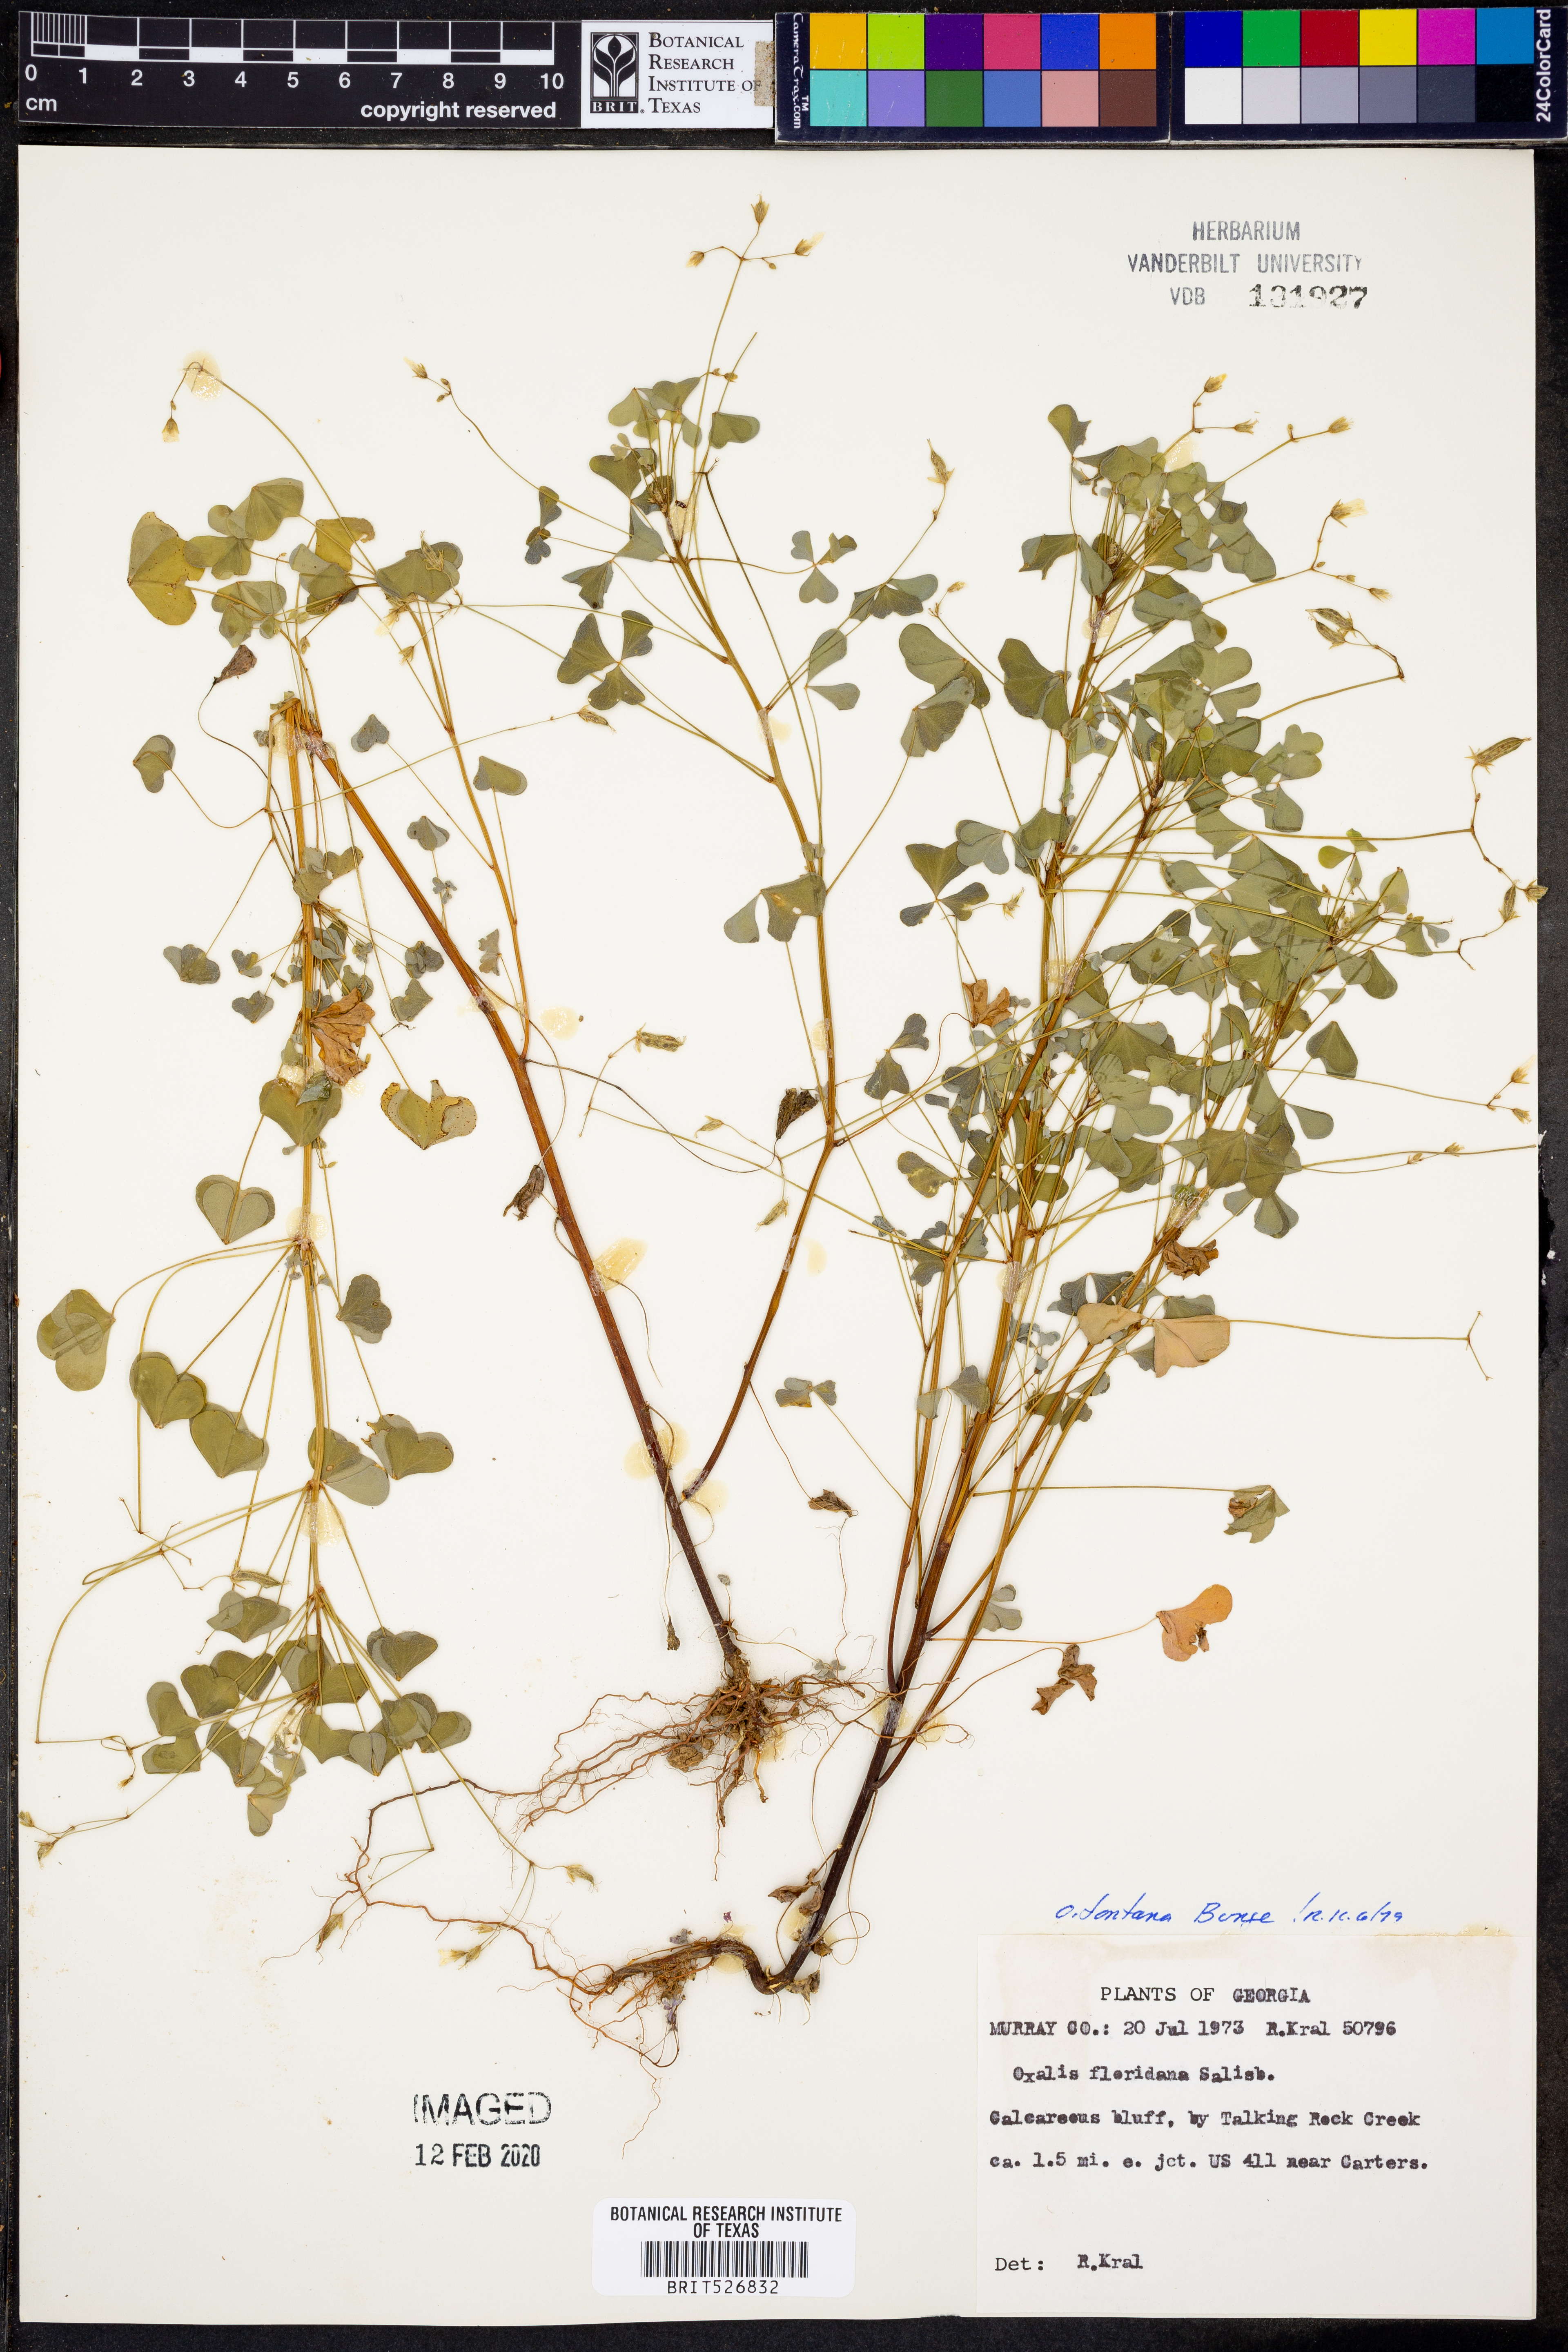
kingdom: Plantae
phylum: Tracheophyta
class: Magnoliopsida
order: Oxalidales
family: Oxalidaceae
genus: Oxalis
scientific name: Oxalis stricta
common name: Upright yellow-sorrel
